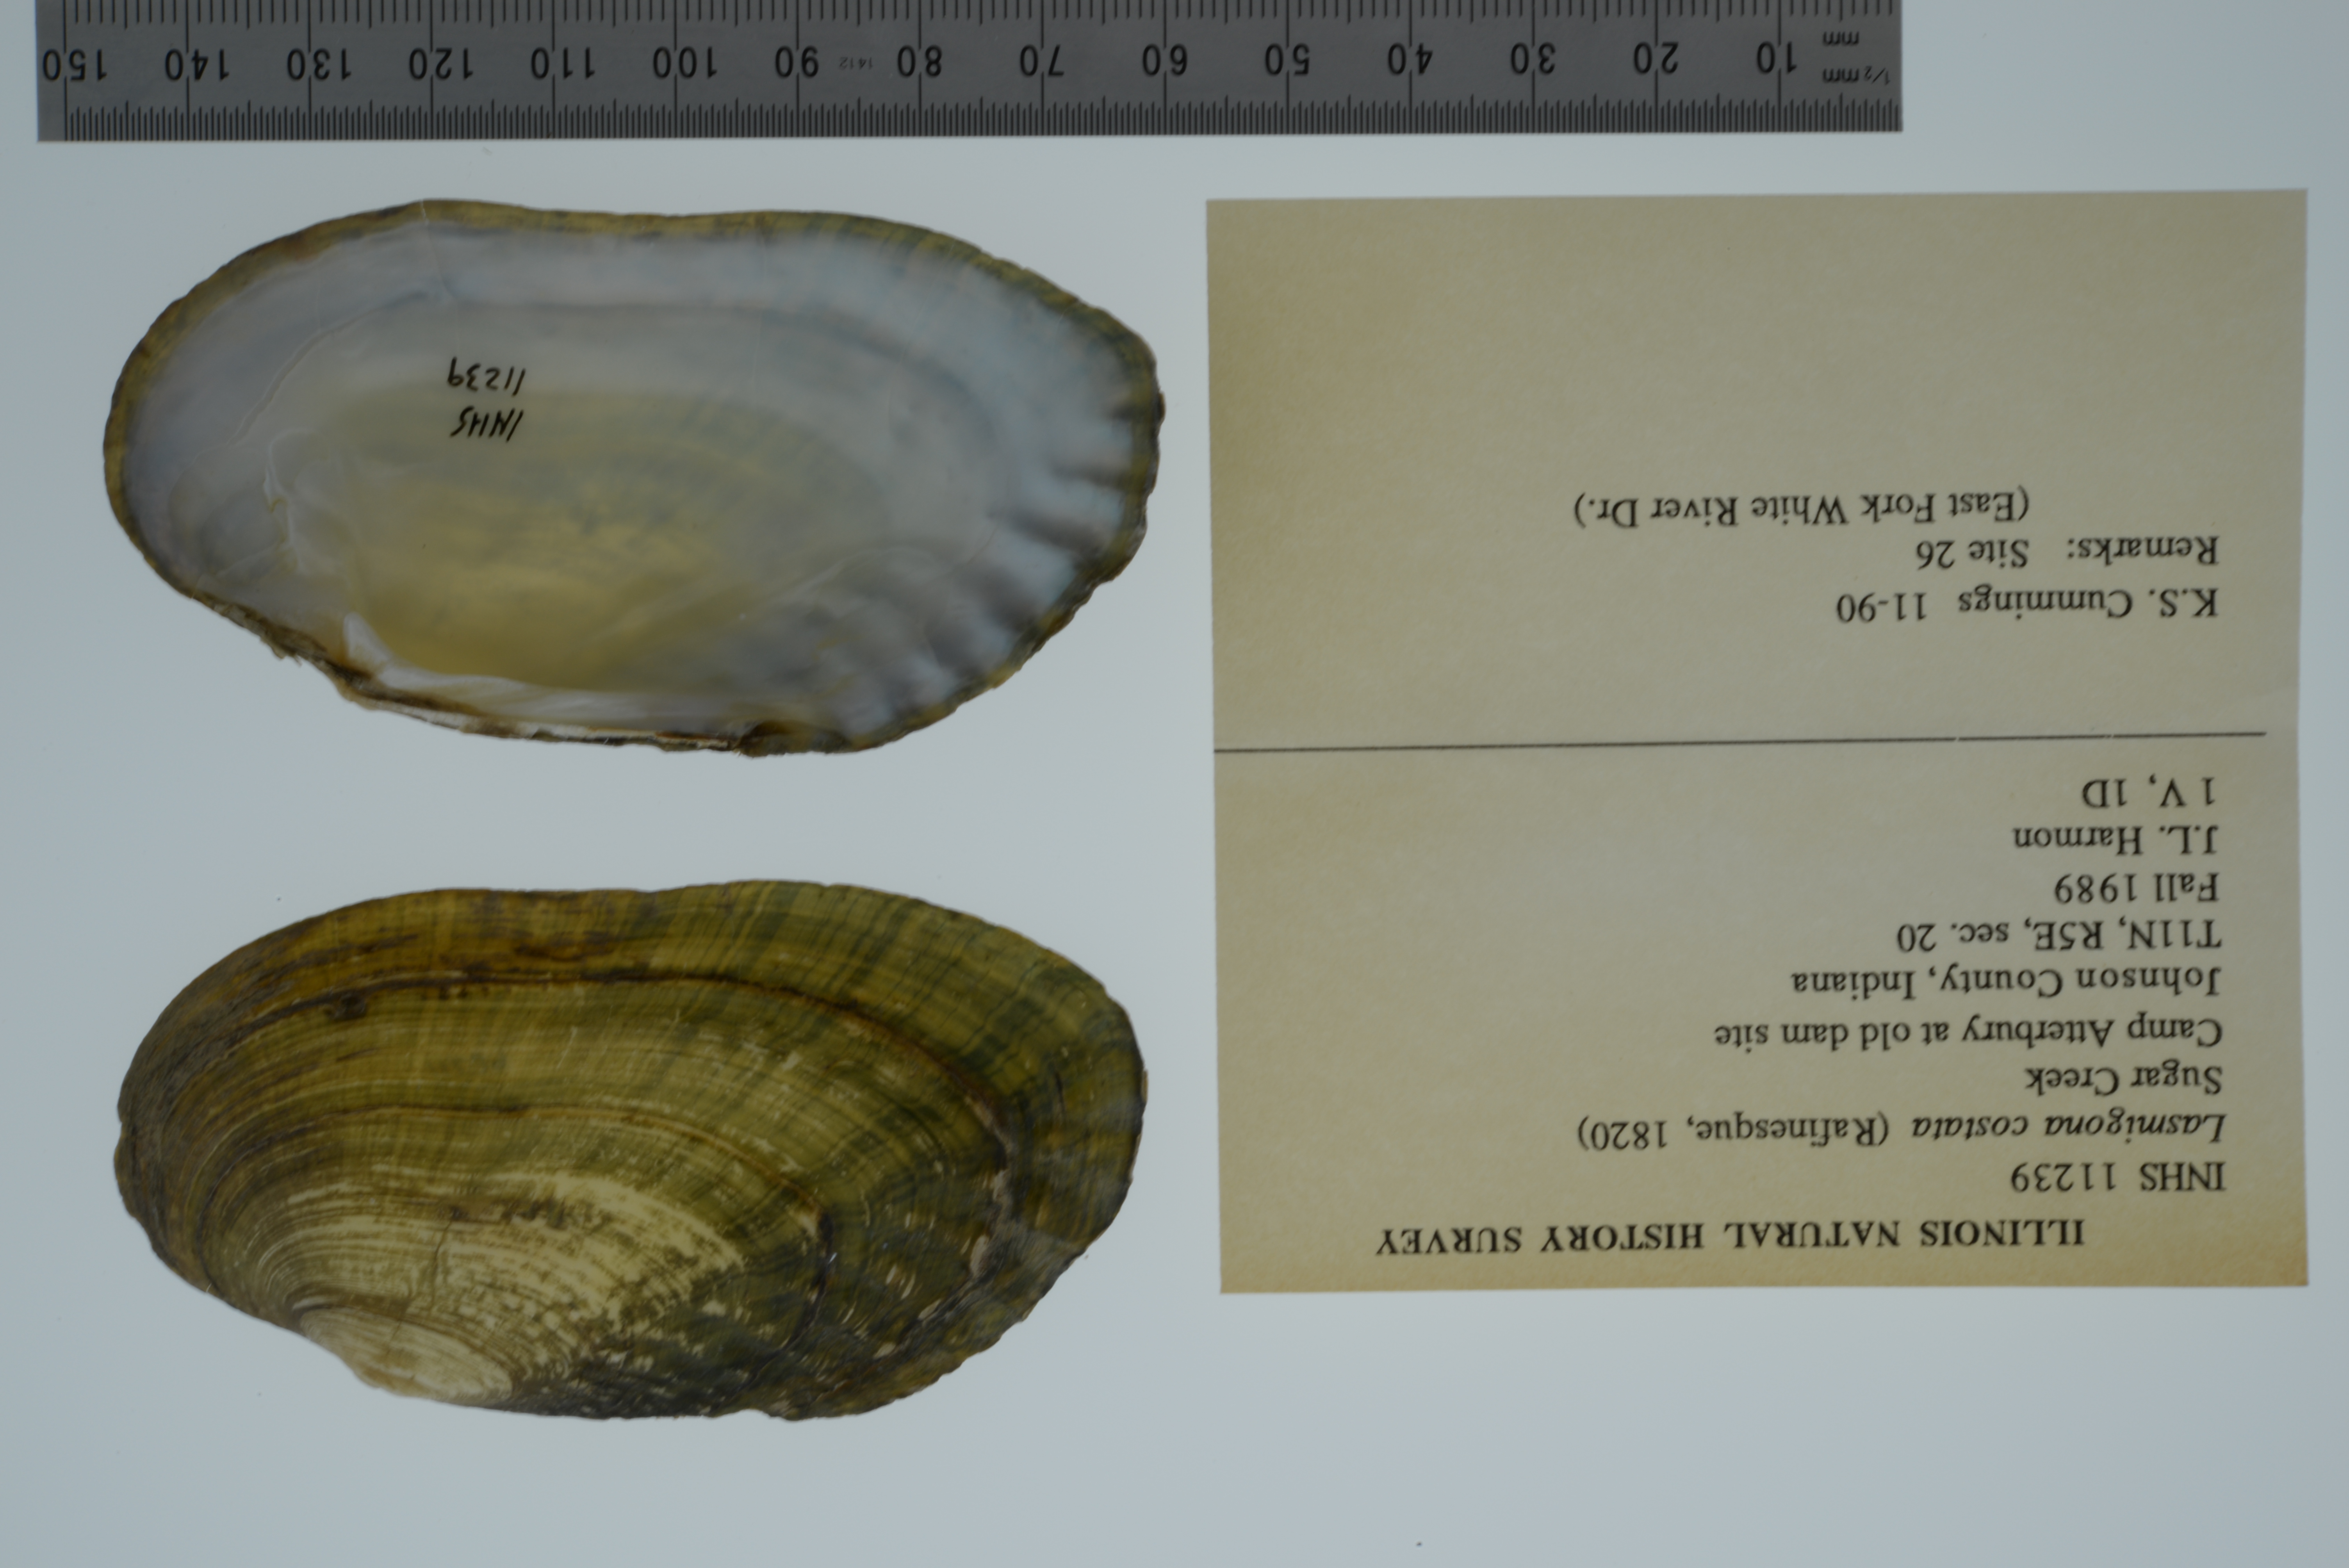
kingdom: Animalia
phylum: Mollusca
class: Bivalvia
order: Unionida
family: Unionidae
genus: Lasmigona
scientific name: Lasmigona costata
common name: Flutedshell
